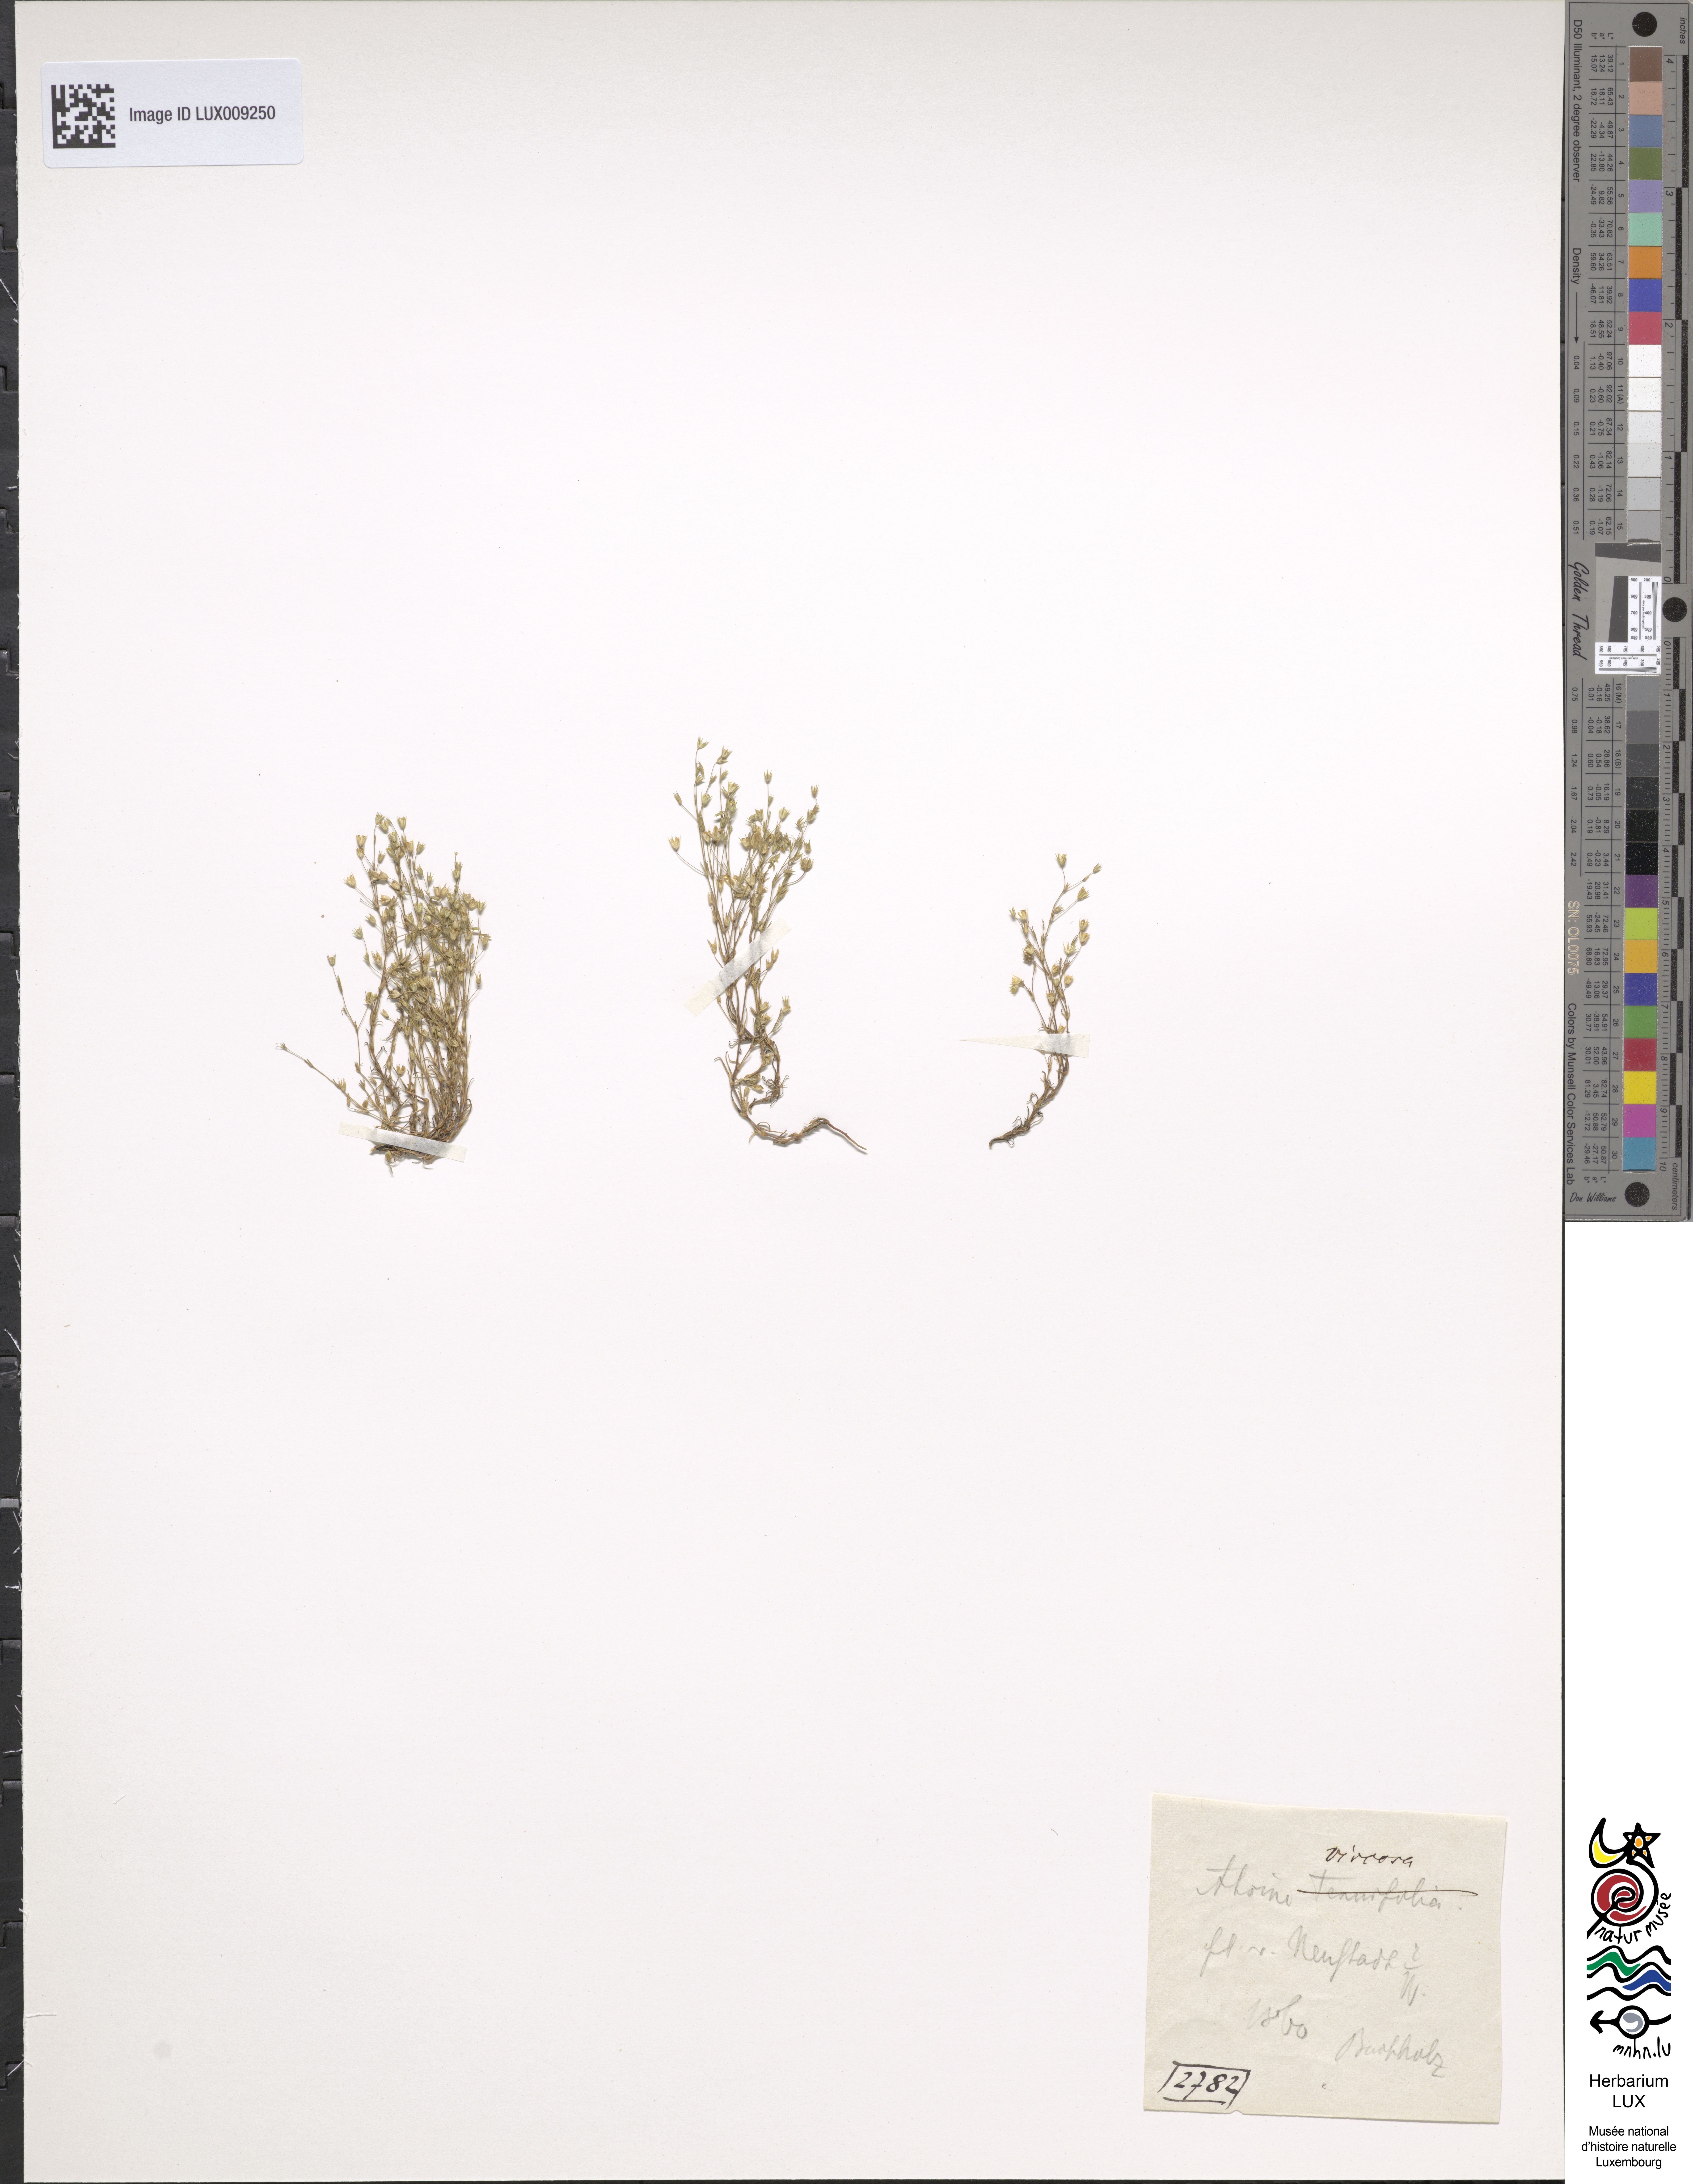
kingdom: Plantae
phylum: Tracheophyta
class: Magnoliopsida
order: Caryophyllales
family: Caryophyllaceae
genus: Sabulina
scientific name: Sabulina viscosa
